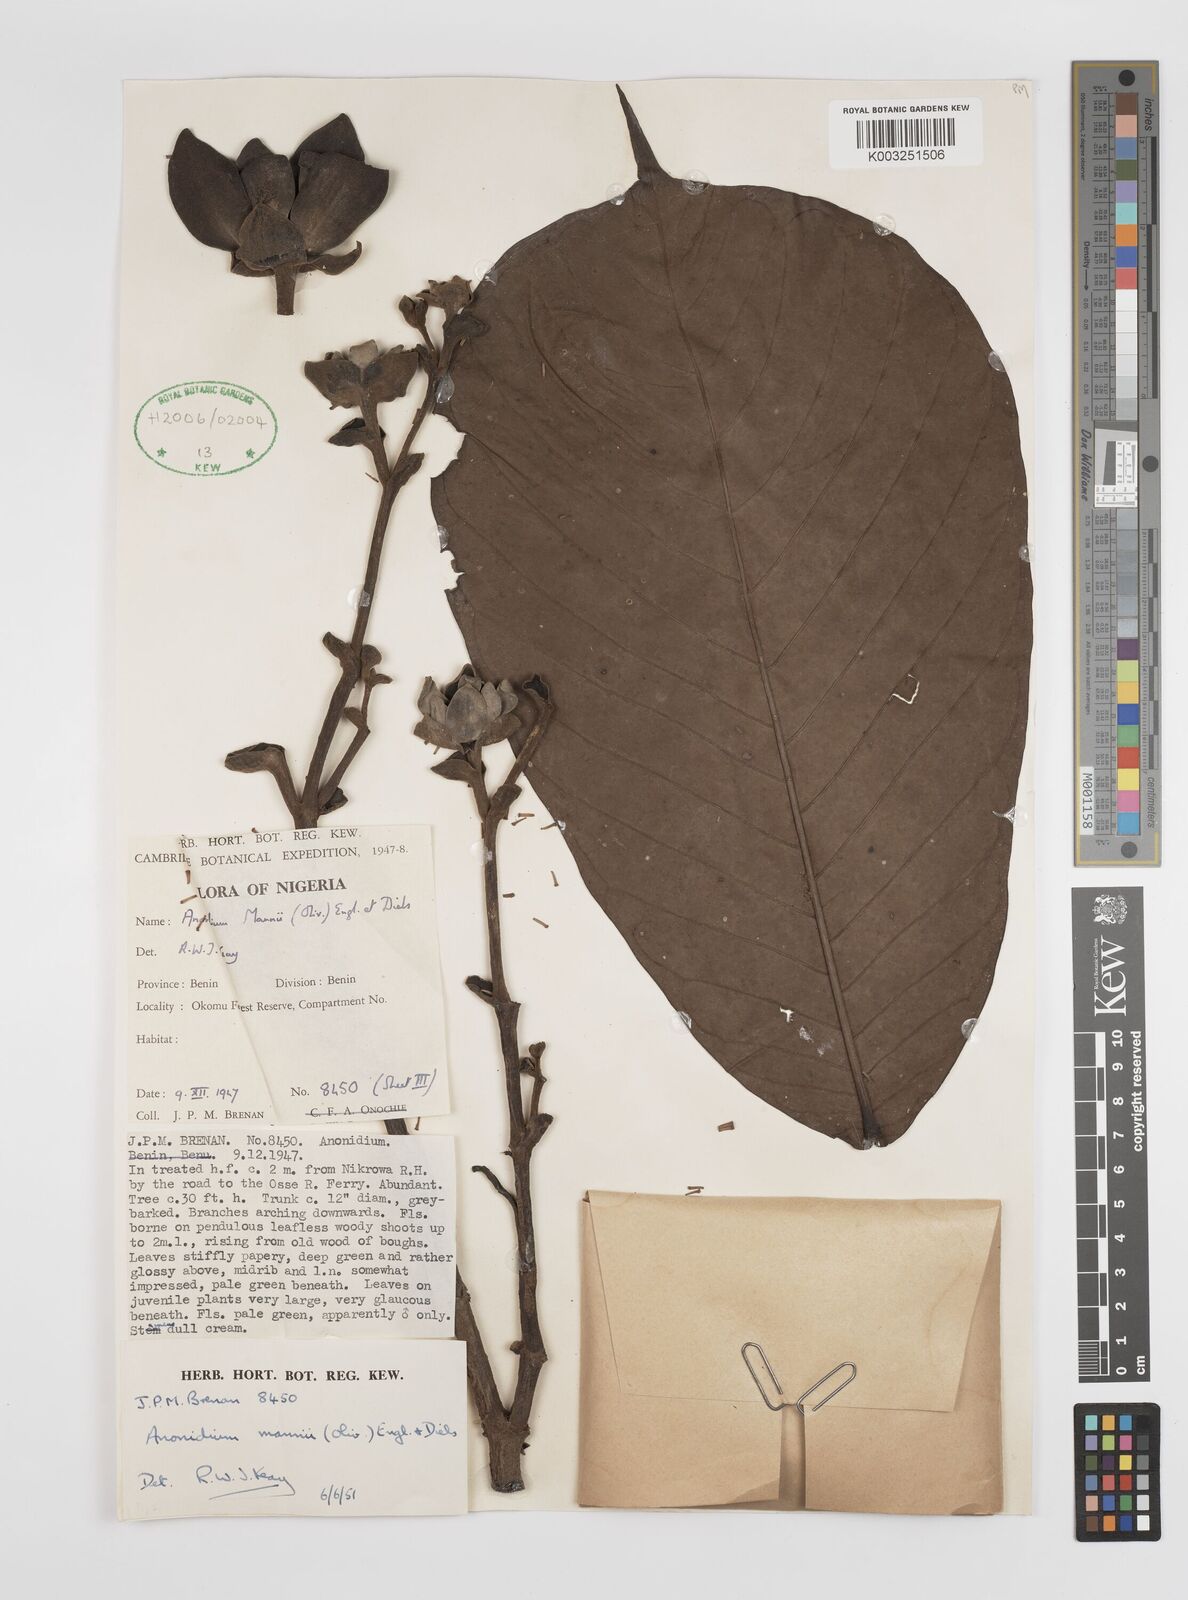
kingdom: Plantae
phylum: Tracheophyta
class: Magnoliopsida
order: Magnoliales
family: Annonaceae
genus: Anonidium
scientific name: Anonidium mannii
